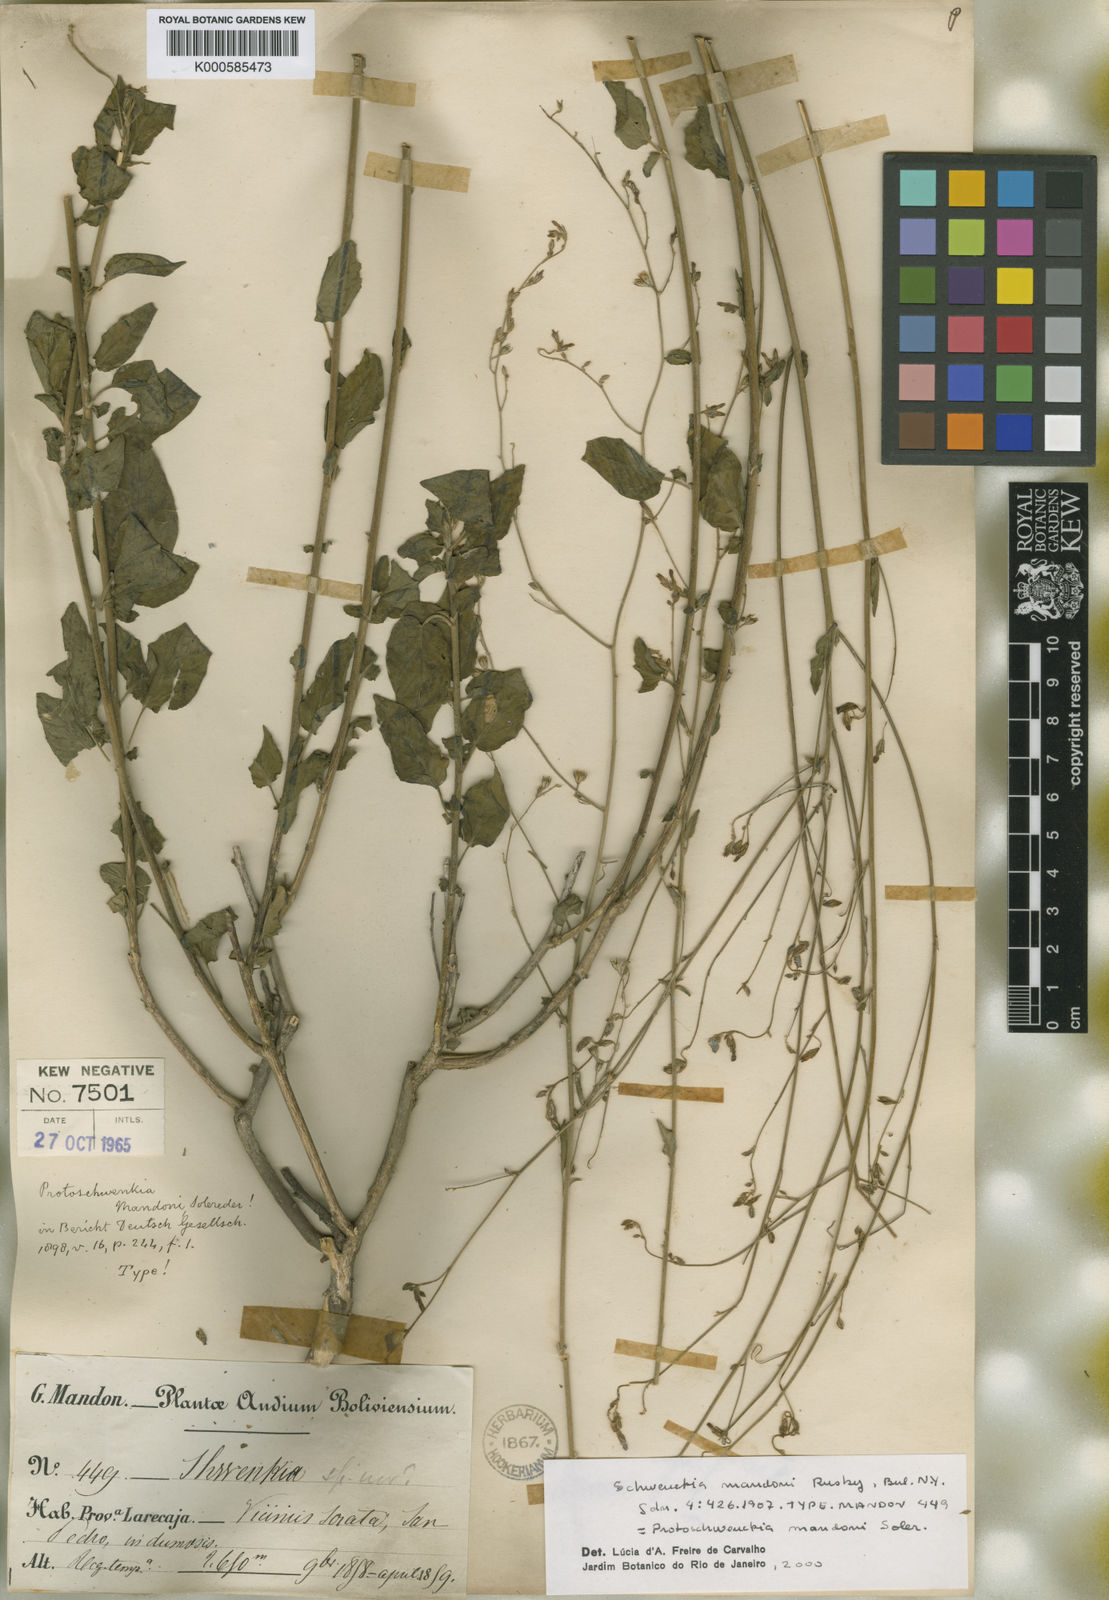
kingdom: Plantae
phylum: Tracheophyta
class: Magnoliopsida
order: Solanales
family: Solanaceae
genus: Protoschwenckia
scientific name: Protoschwenckia mandonii
